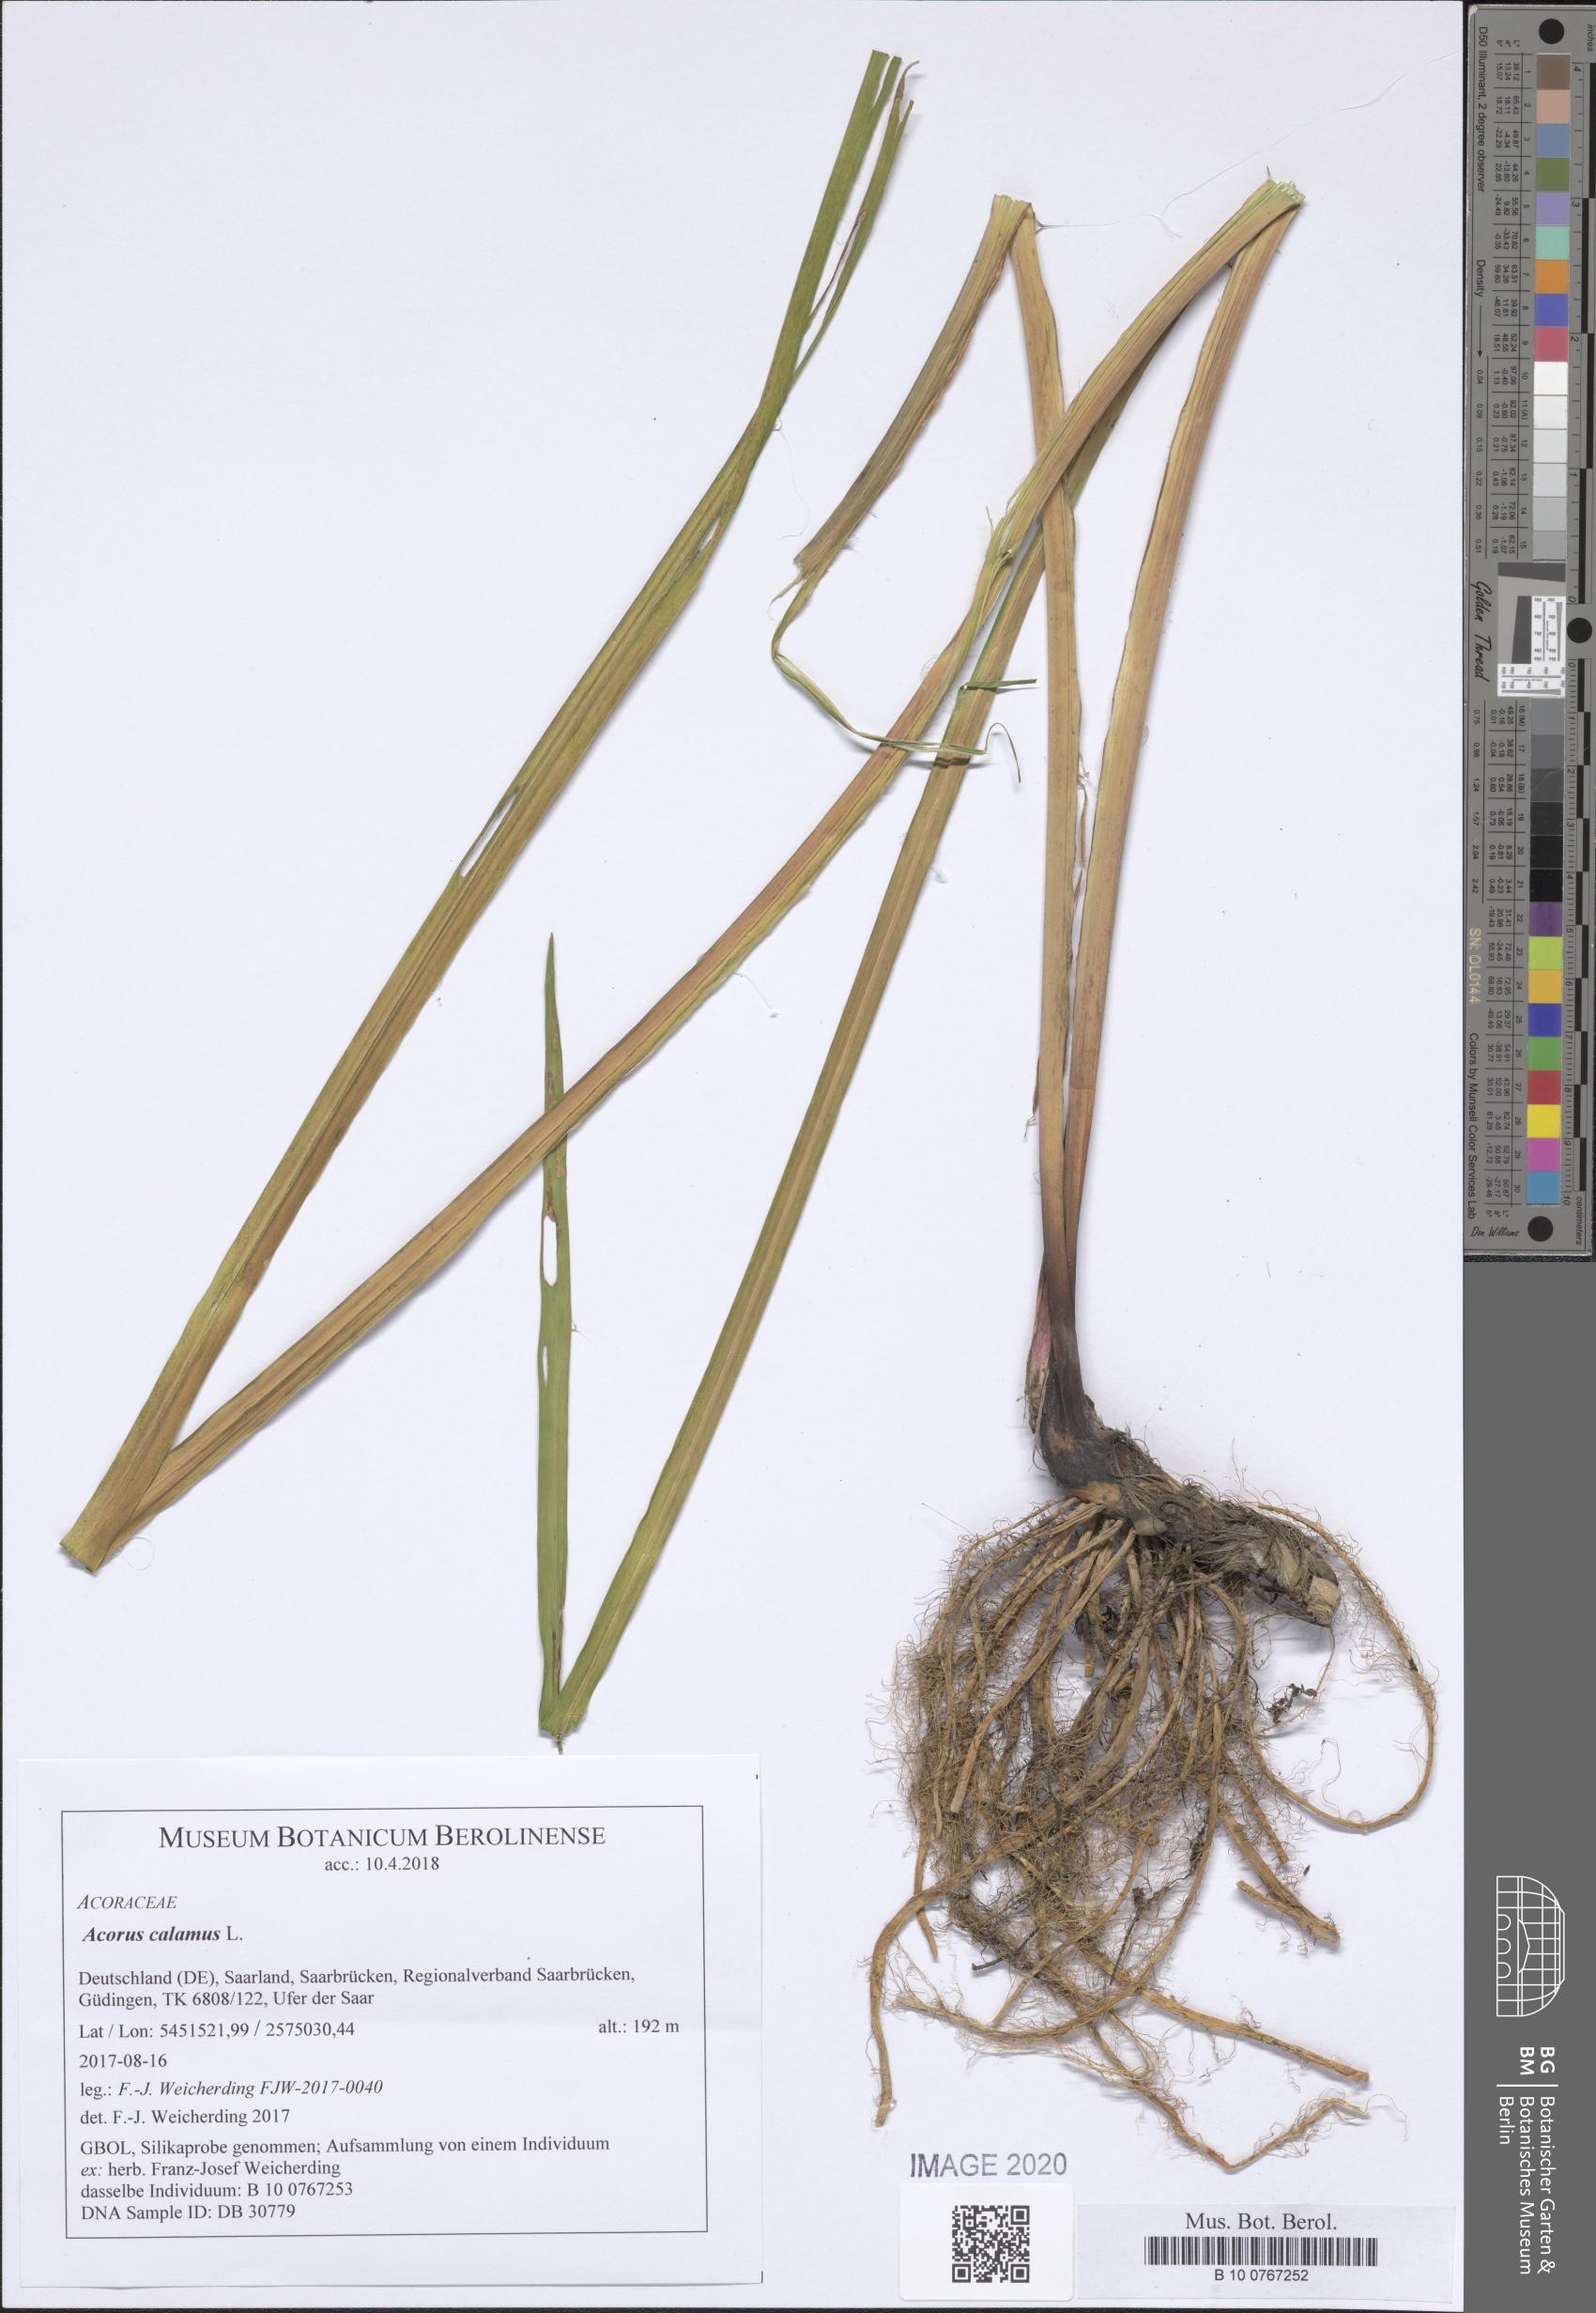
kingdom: Plantae
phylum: Tracheophyta
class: Liliopsida
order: Acorales
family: Acoraceae
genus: Acorus
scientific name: Acorus calamus
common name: Sweet-flag
